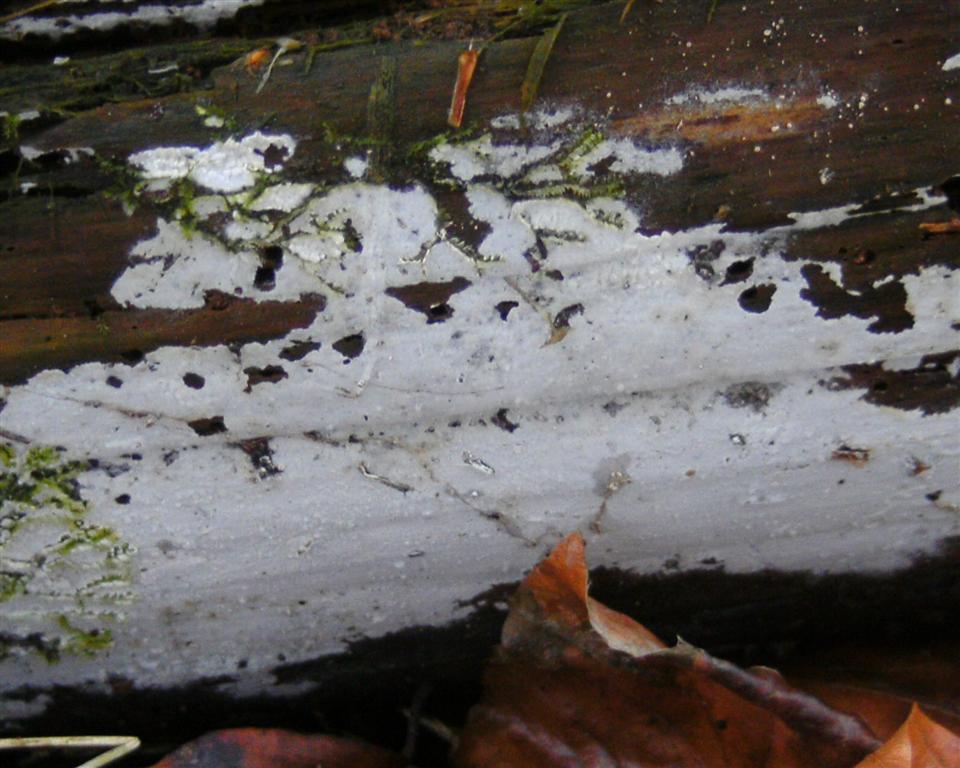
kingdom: Fungi
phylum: Basidiomycota
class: Agaricomycetes
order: Atheliales
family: Atheliaceae
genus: Athelia
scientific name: Athelia epiphylla
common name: almindelig barkhinde
